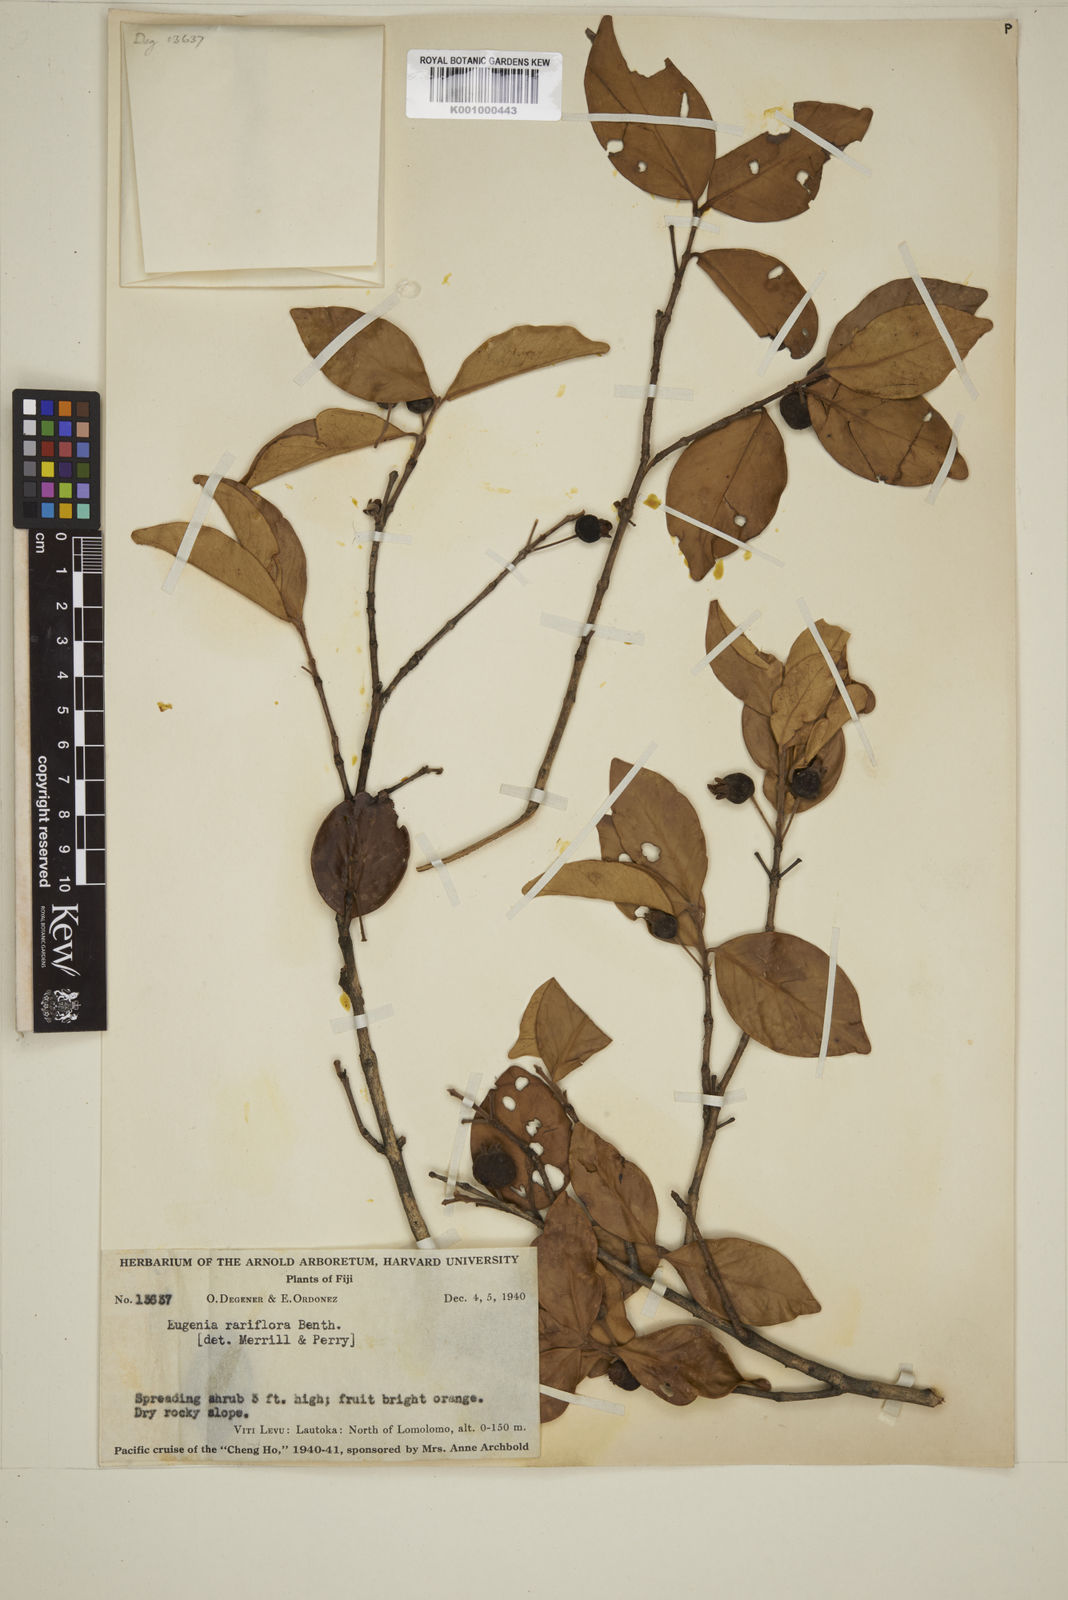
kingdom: Plantae
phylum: Tracheophyta
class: Magnoliopsida
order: Myrtales
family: Myrtaceae
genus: Eugenia
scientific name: Eugenia reinwardtiana
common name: Cedar bay-cherry
